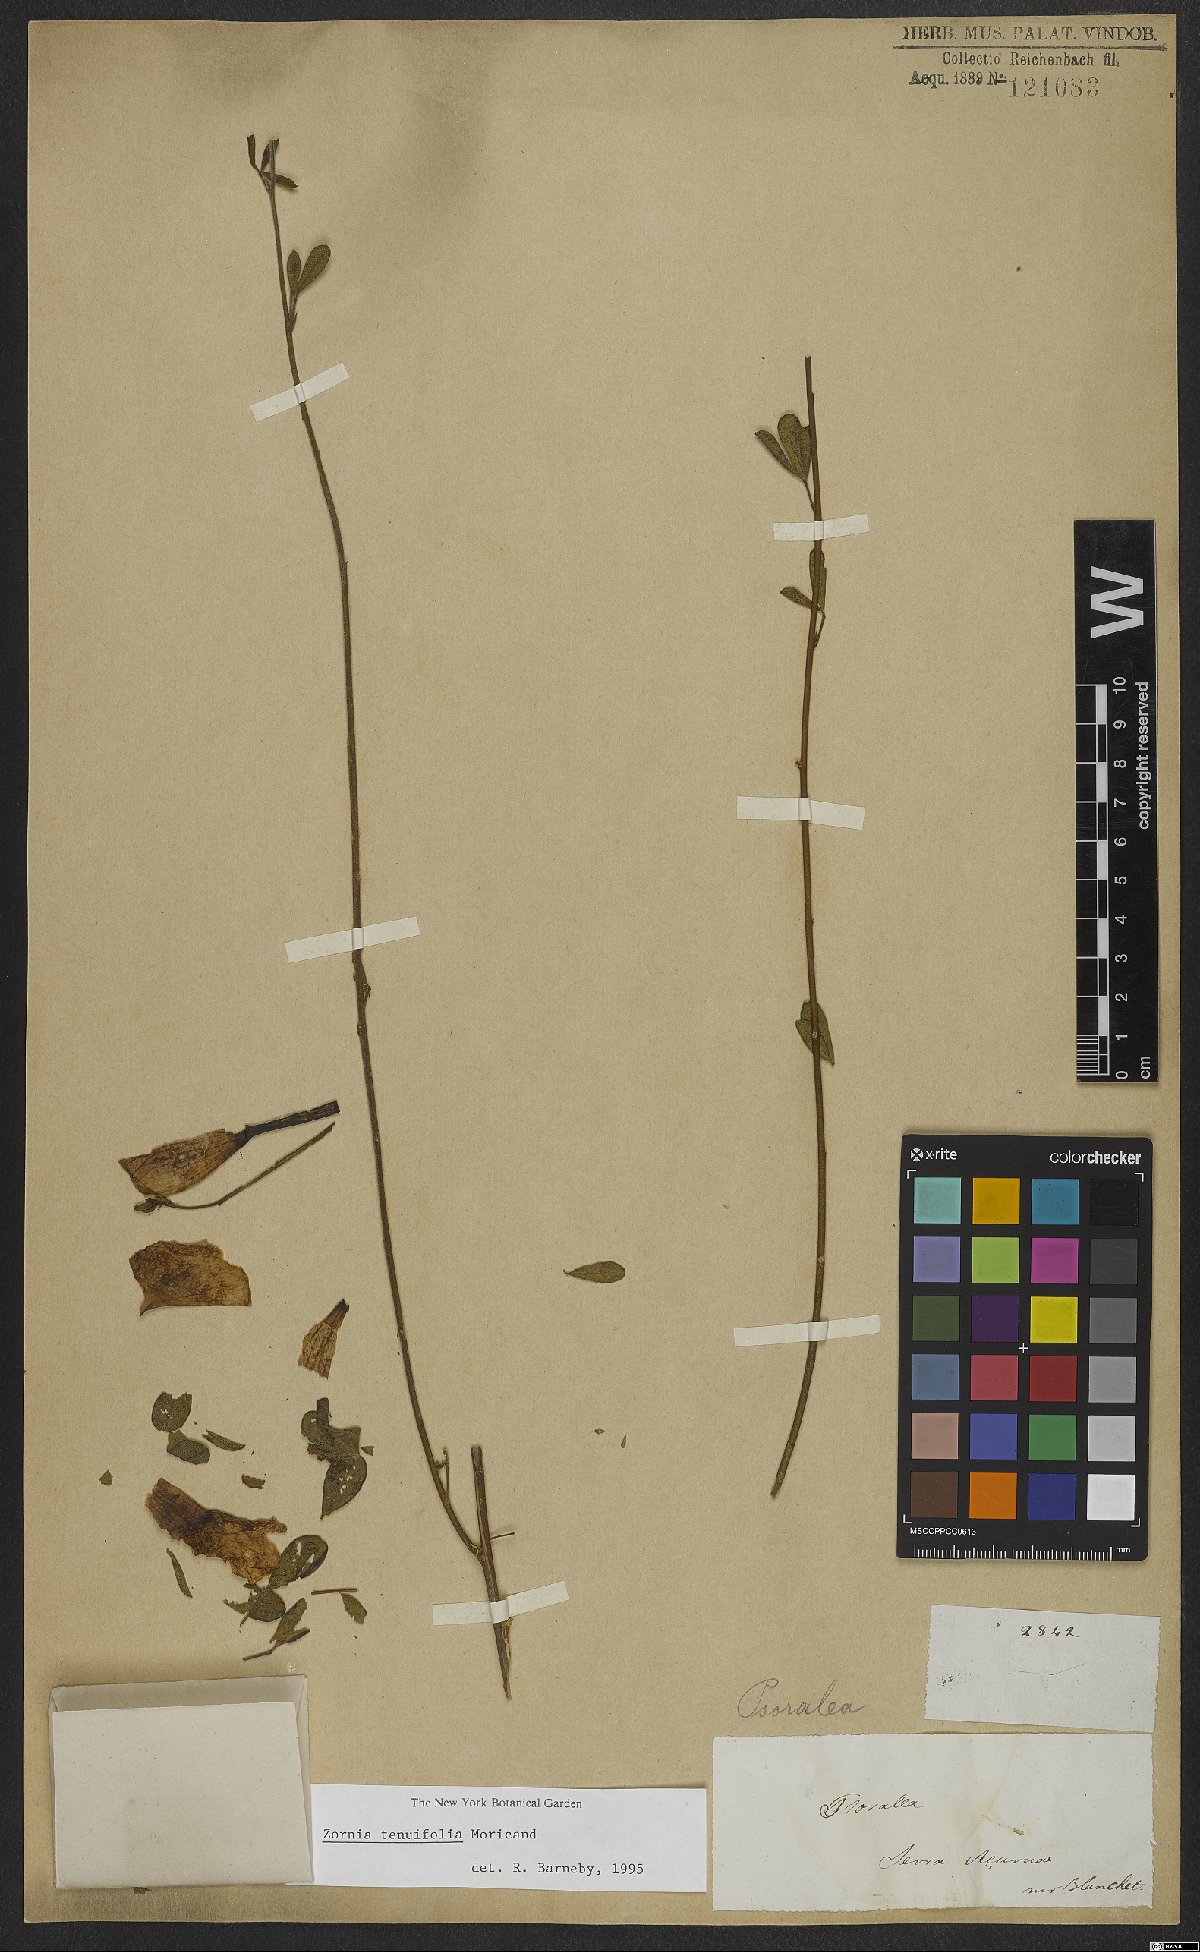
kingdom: Plantae
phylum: Tracheophyta
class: Magnoliopsida
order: Fabales
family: Fabaceae
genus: Zornia
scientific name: Zornia tenuifolia
